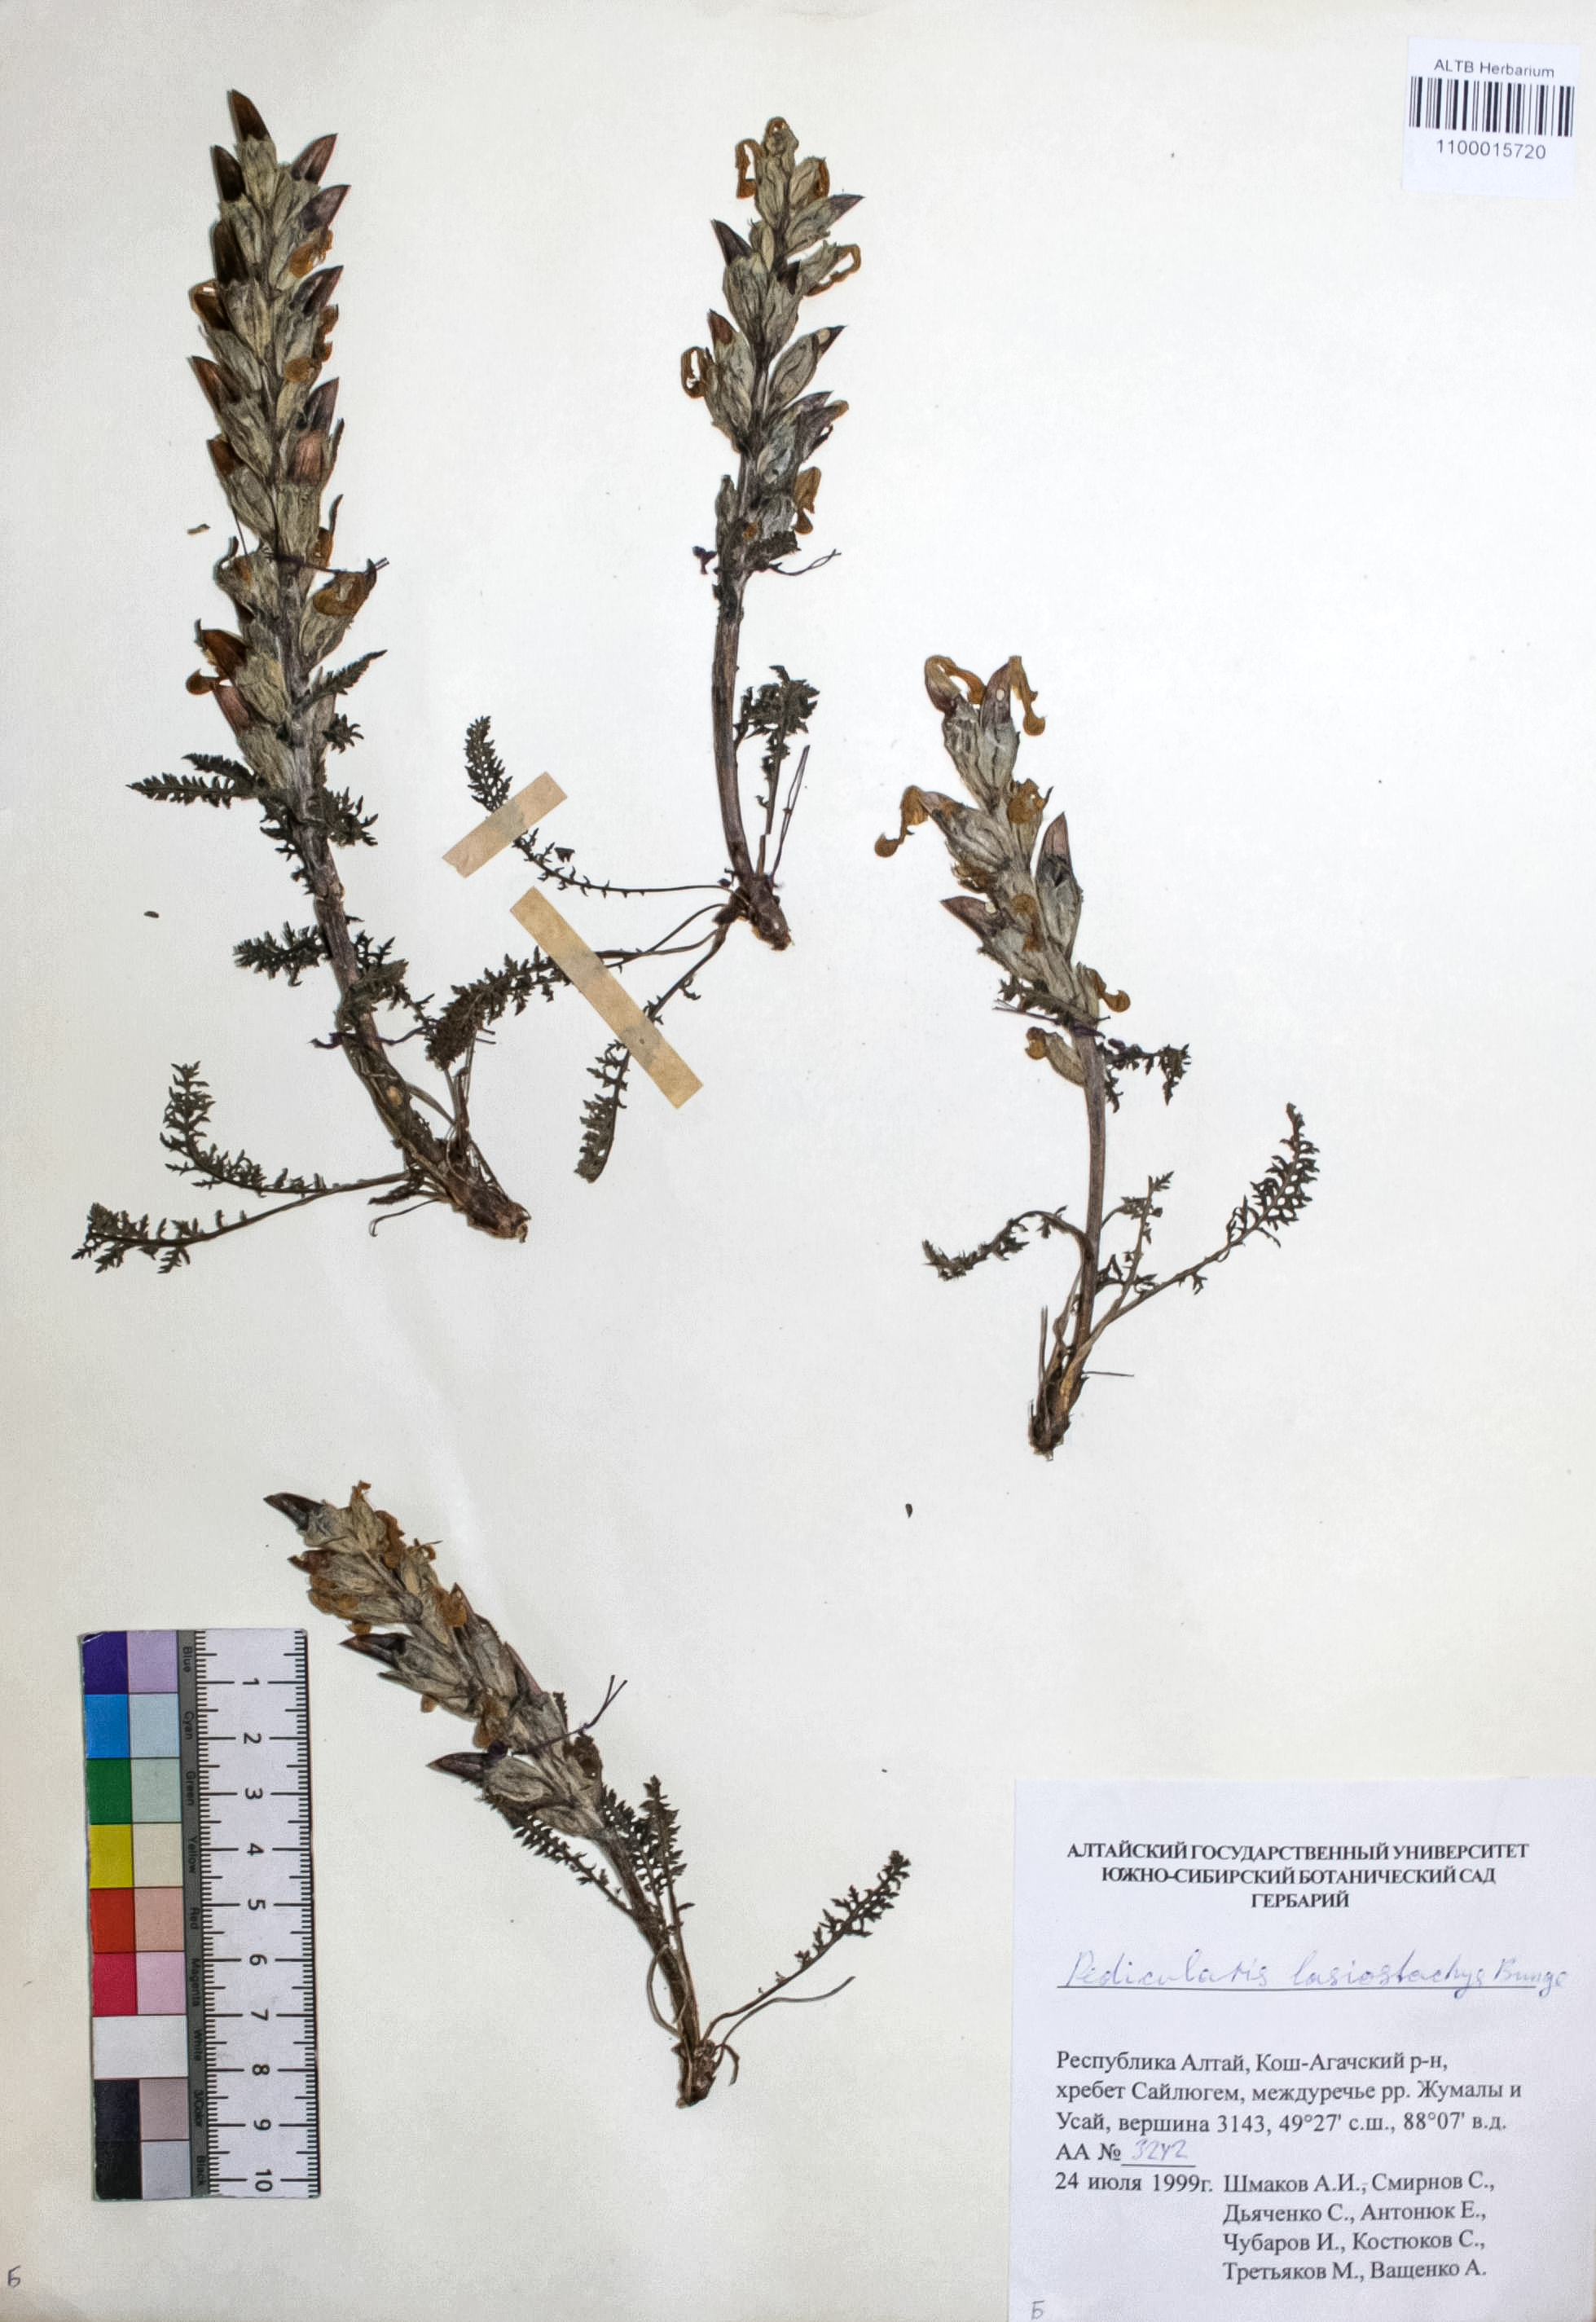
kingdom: Plantae
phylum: Tracheophyta
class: Magnoliopsida
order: Lamiales
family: Orobanchaceae
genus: Pedicularis
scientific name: Pedicularis lasiostachys
